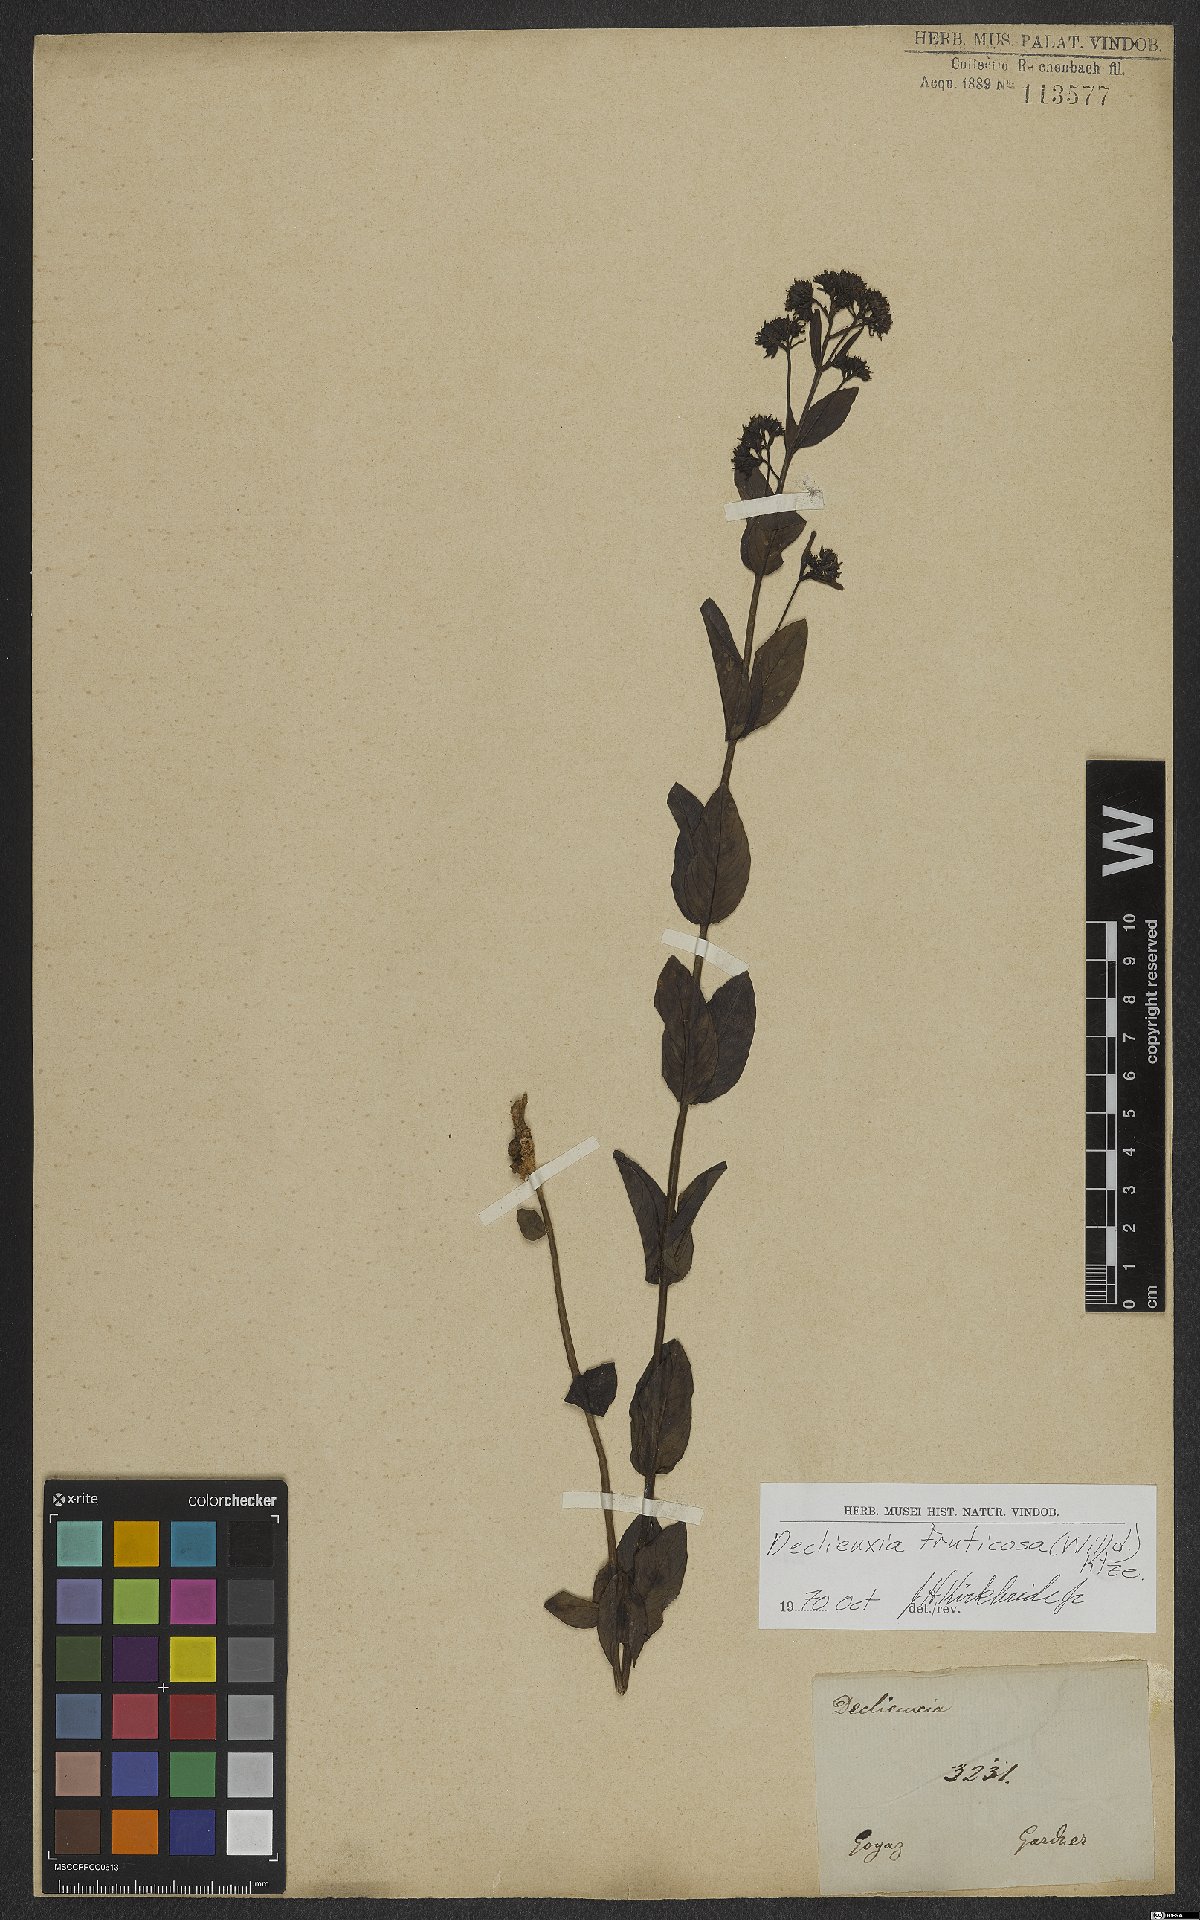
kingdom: Plantae
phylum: Tracheophyta
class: Magnoliopsida
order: Gentianales
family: Rubiaceae
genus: Declieuxia
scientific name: Declieuxia fruticosa
